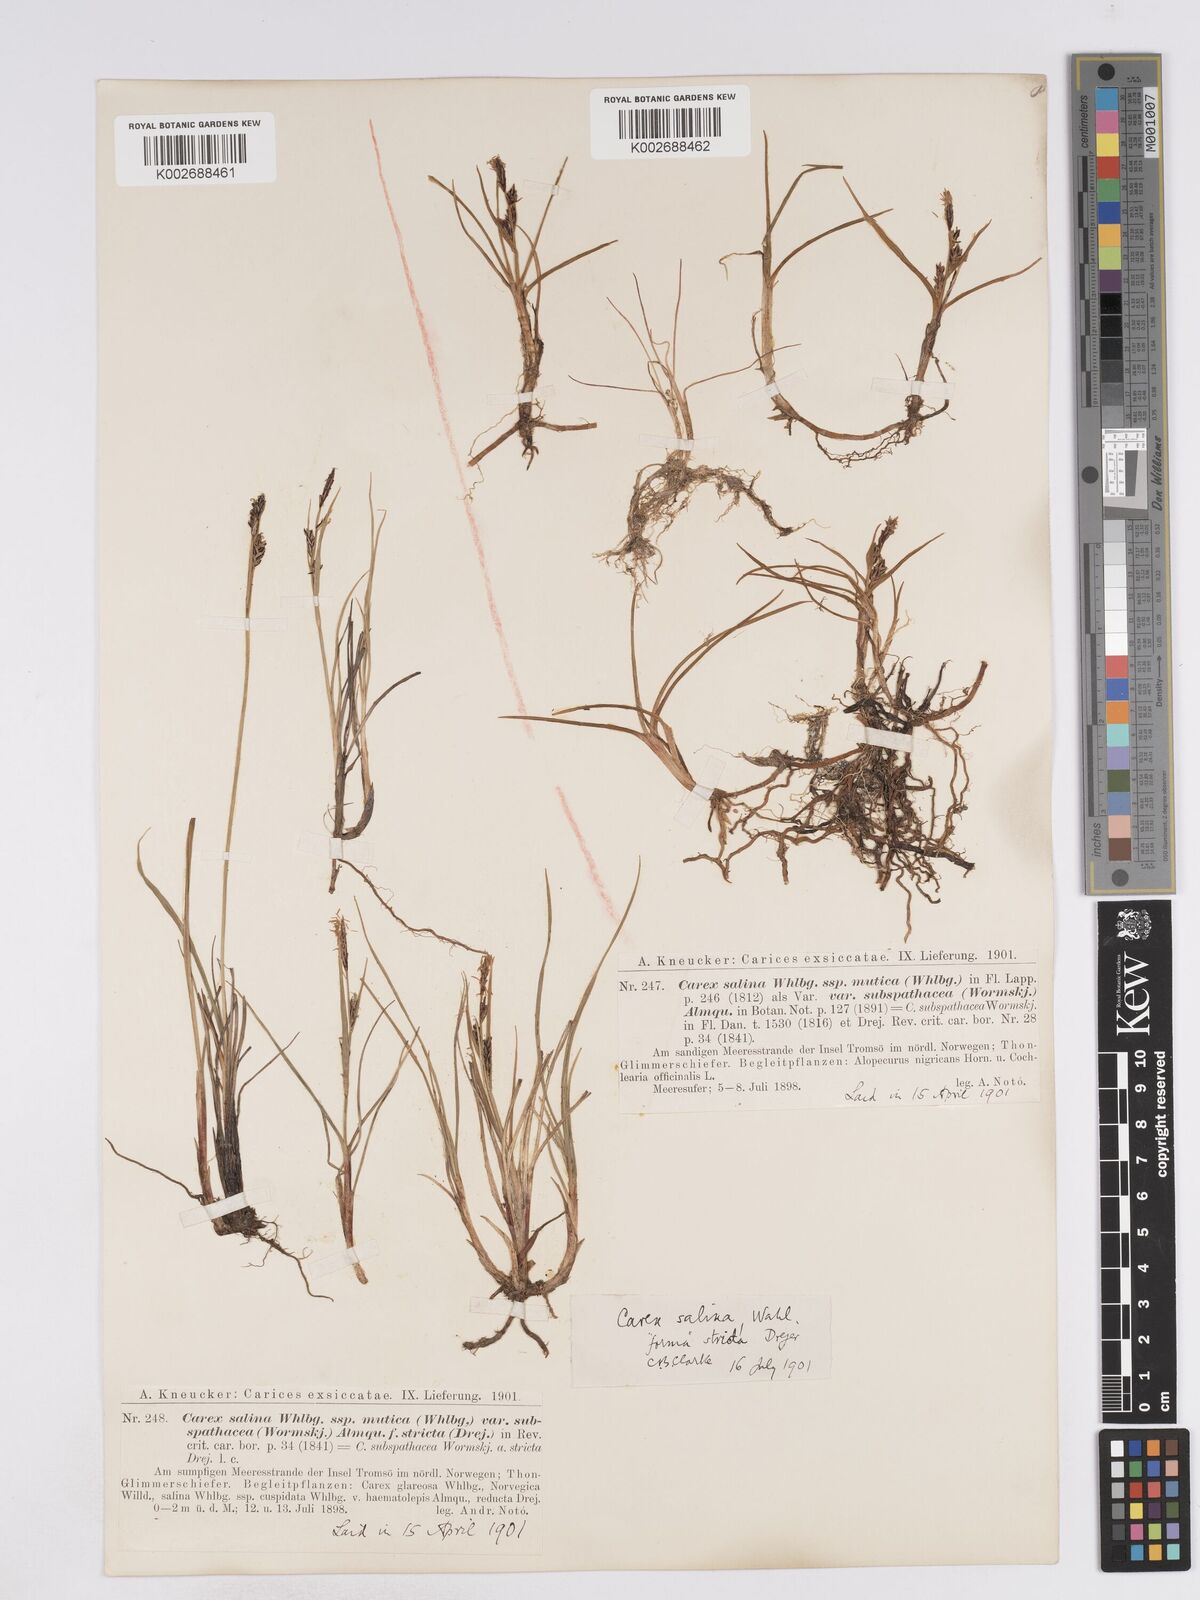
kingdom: Plantae
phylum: Tracheophyta
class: Liliopsida
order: Poales
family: Cyperaceae
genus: Carex
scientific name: Carex salina
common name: Saltmarsh sedge
